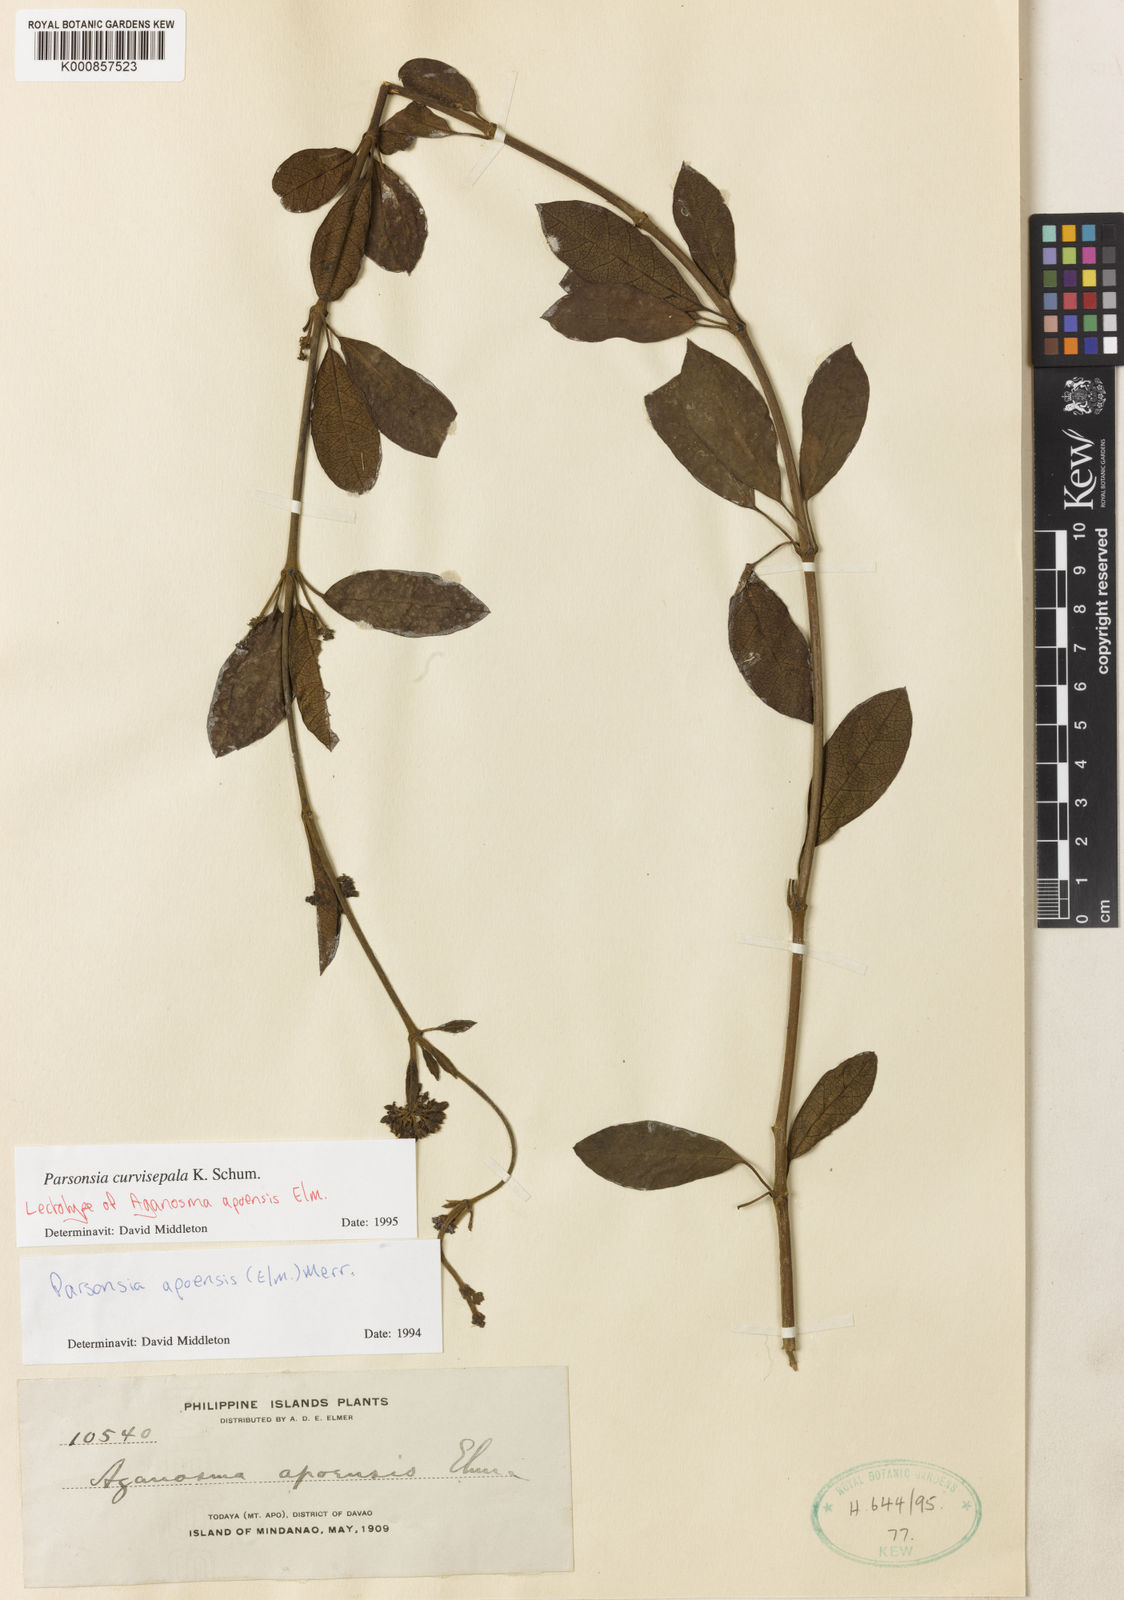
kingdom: Plantae
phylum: Tracheophyta
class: Magnoliopsida
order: Gentianales
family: Apocynaceae
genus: Parsonsia
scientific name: Parsonsia curvisepala
